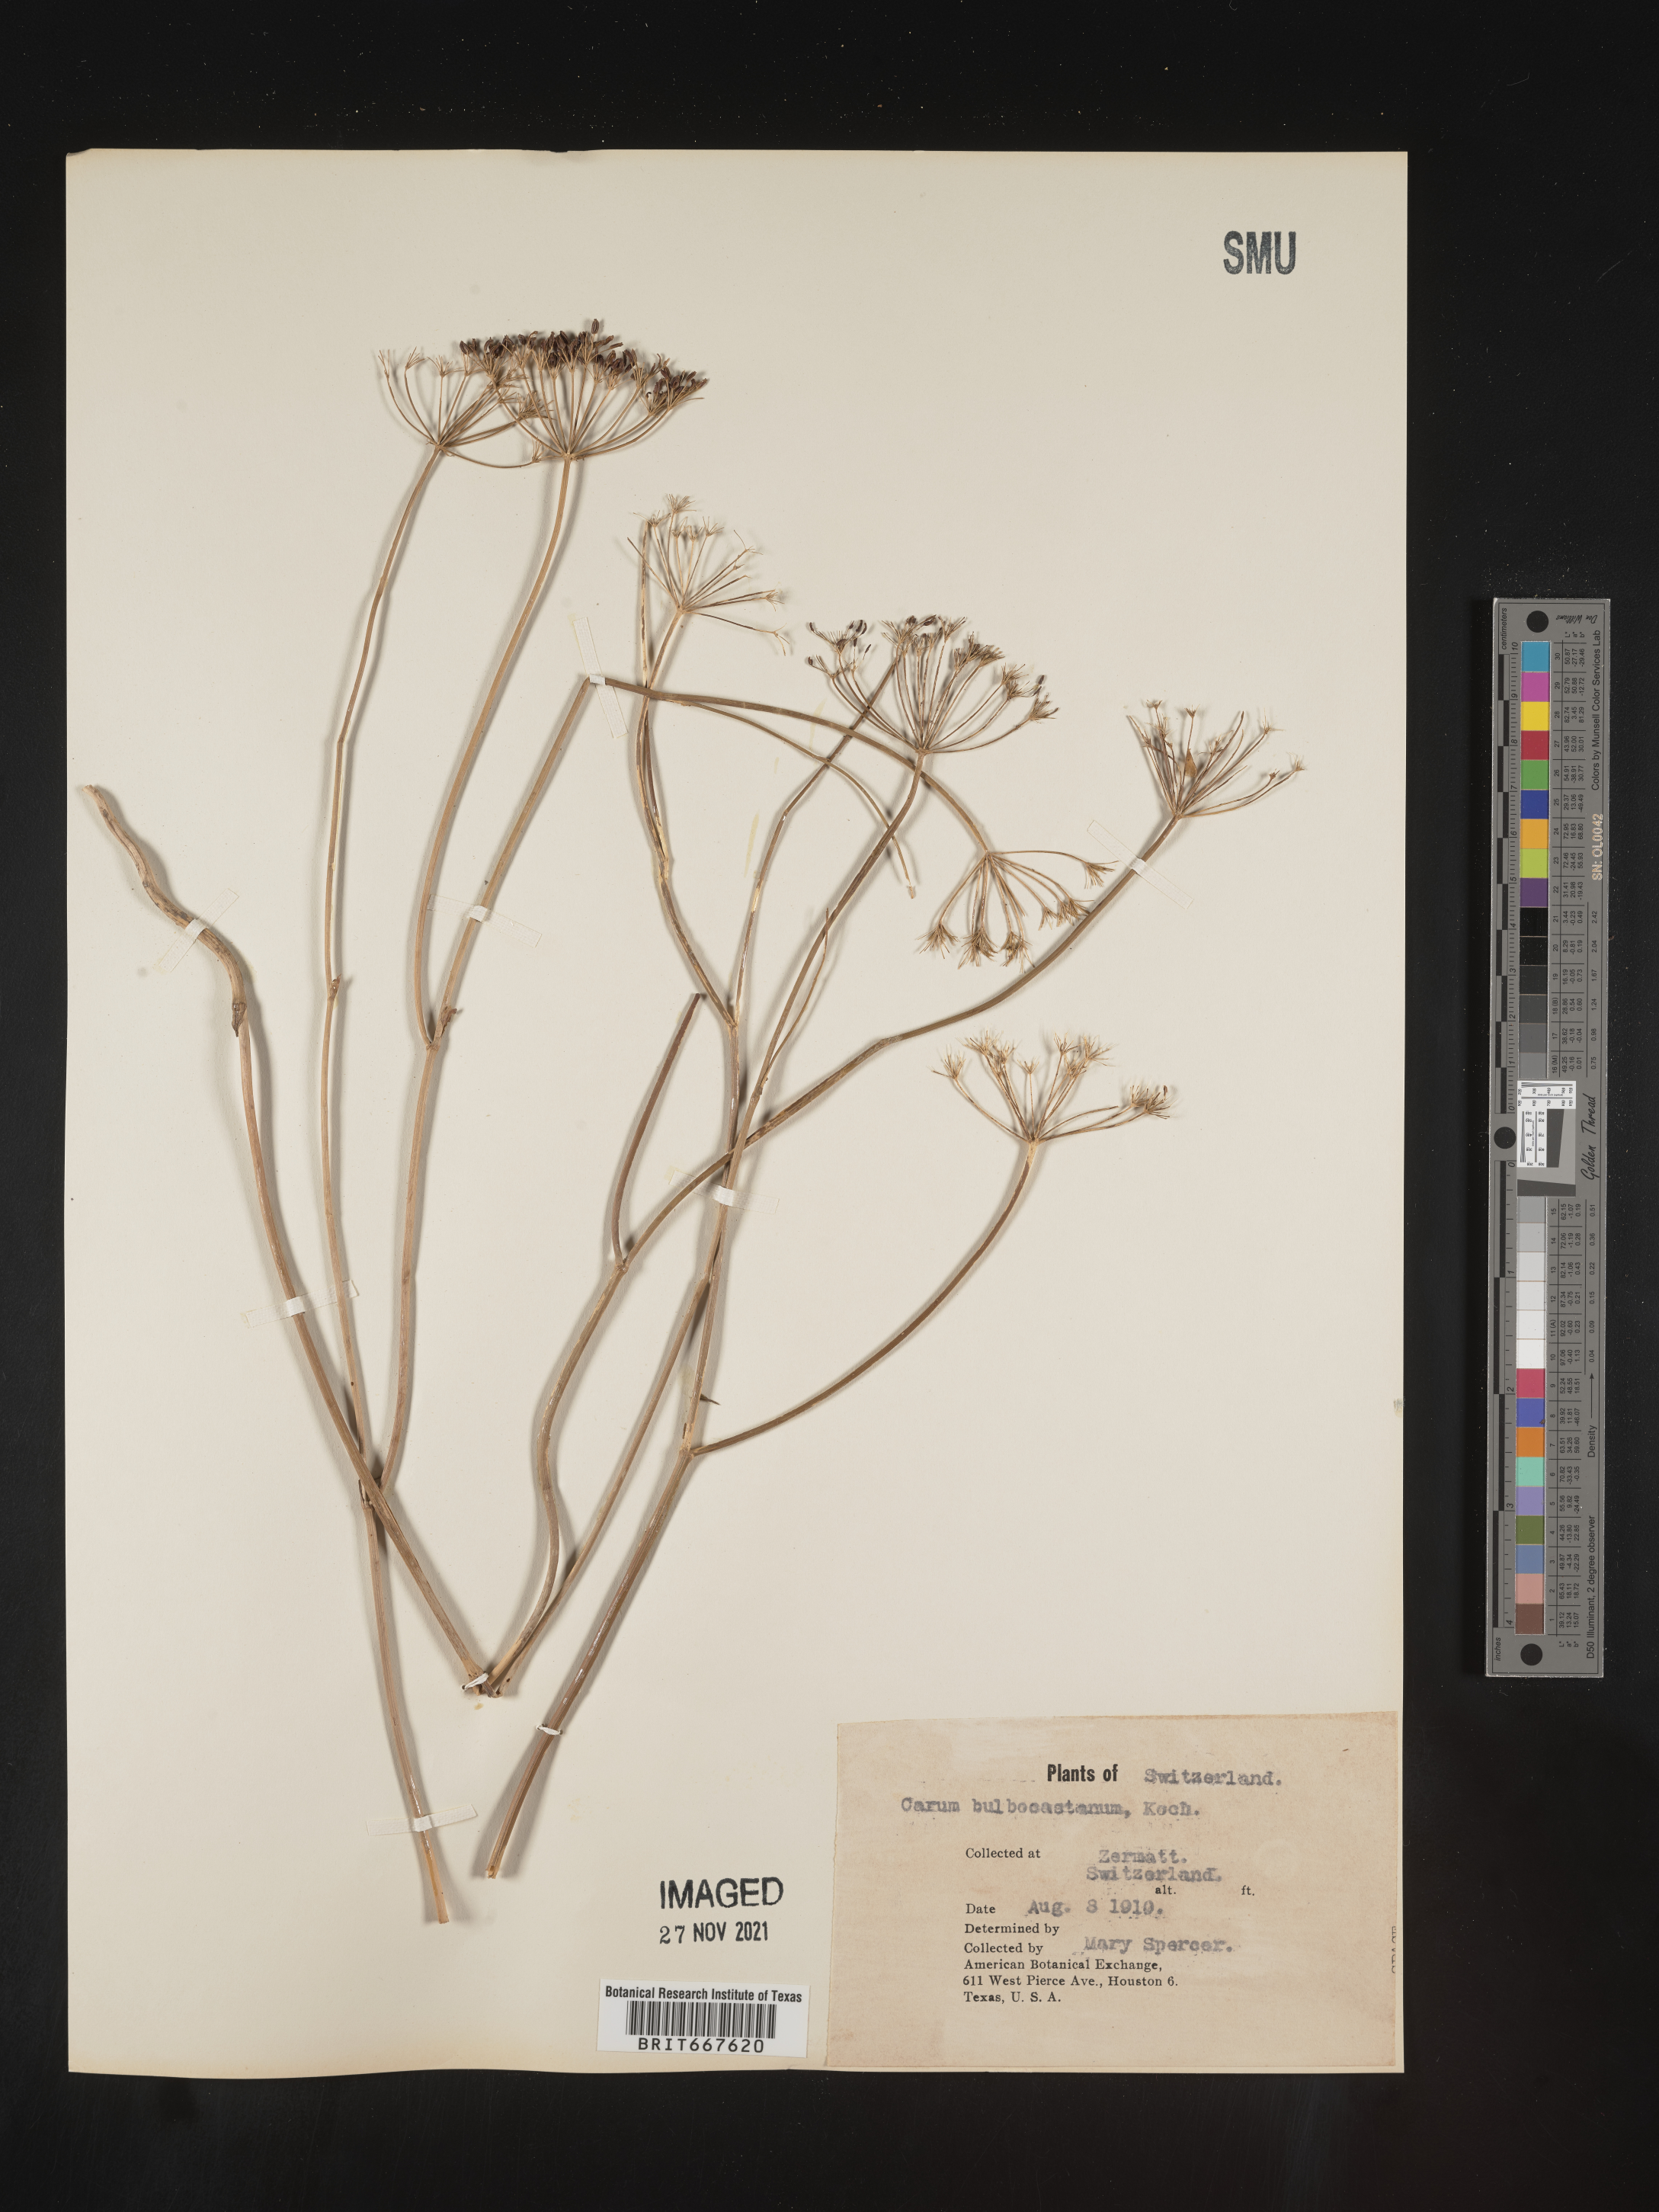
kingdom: Plantae
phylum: Tracheophyta
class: Magnoliopsida
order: Apiales
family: Apiaceae
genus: Carum
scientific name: Carum
